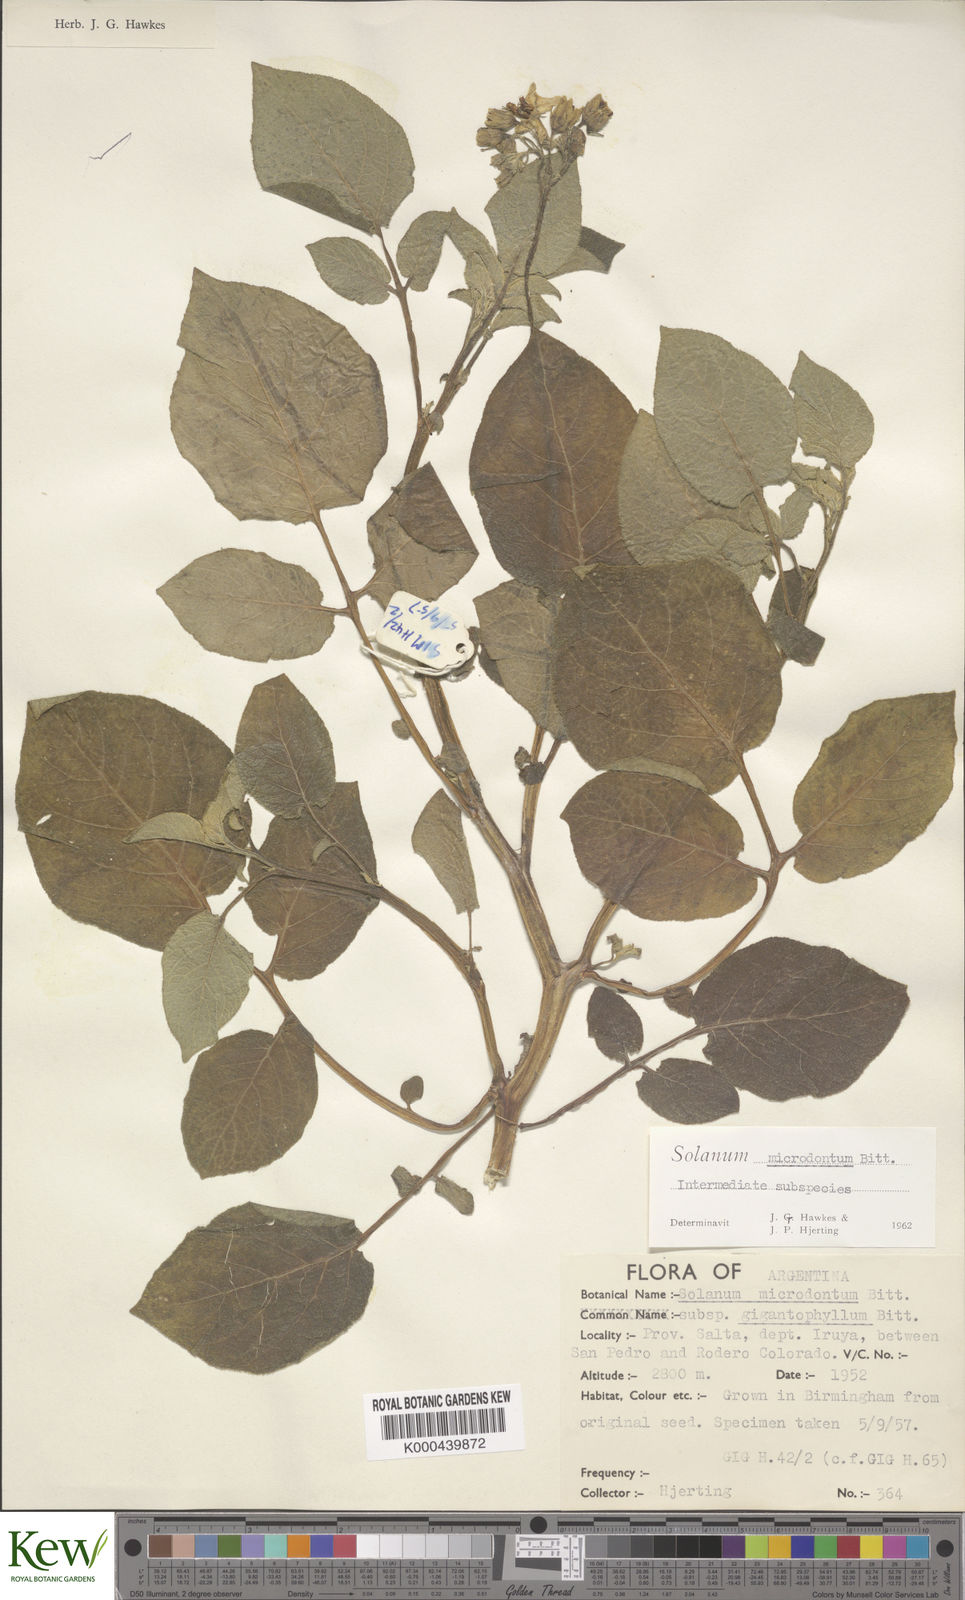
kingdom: Plantae
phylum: Tracheophyta
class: Magnoliopsida
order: Solanales
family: Solanaceae
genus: Solanum
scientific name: Solanum microdontum
